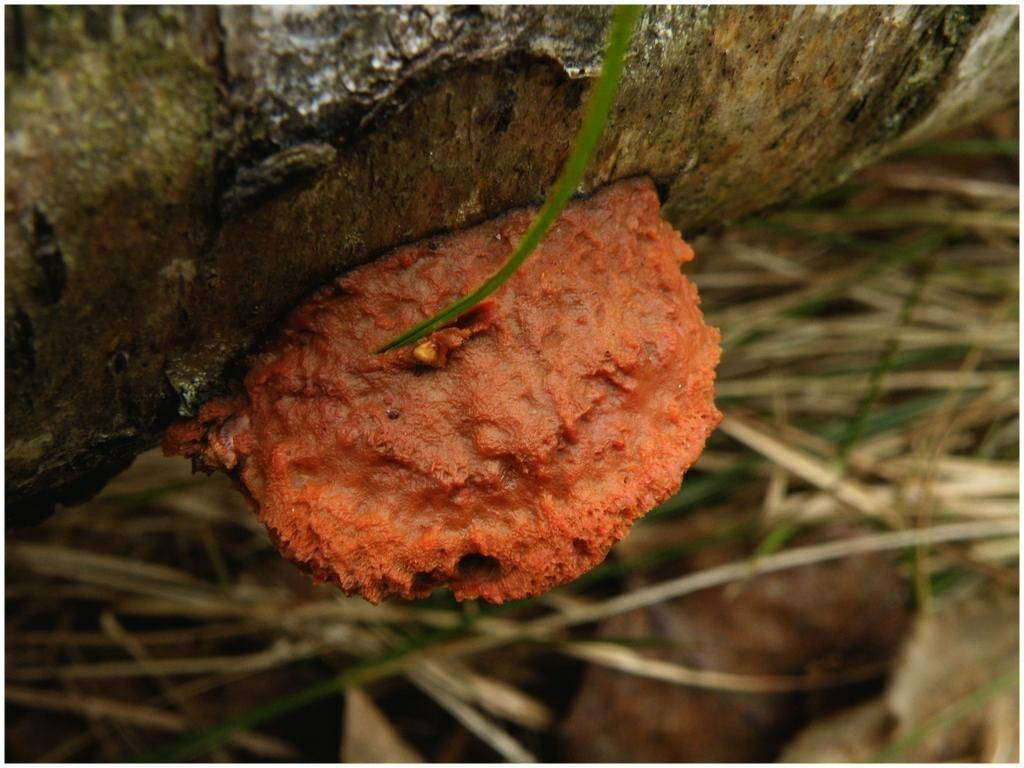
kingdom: Fungi
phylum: Basidiomycota
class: Agaricomycetes
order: Polyporales
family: Polyporaceae
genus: Pycnoporus
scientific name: Pycnoporus
